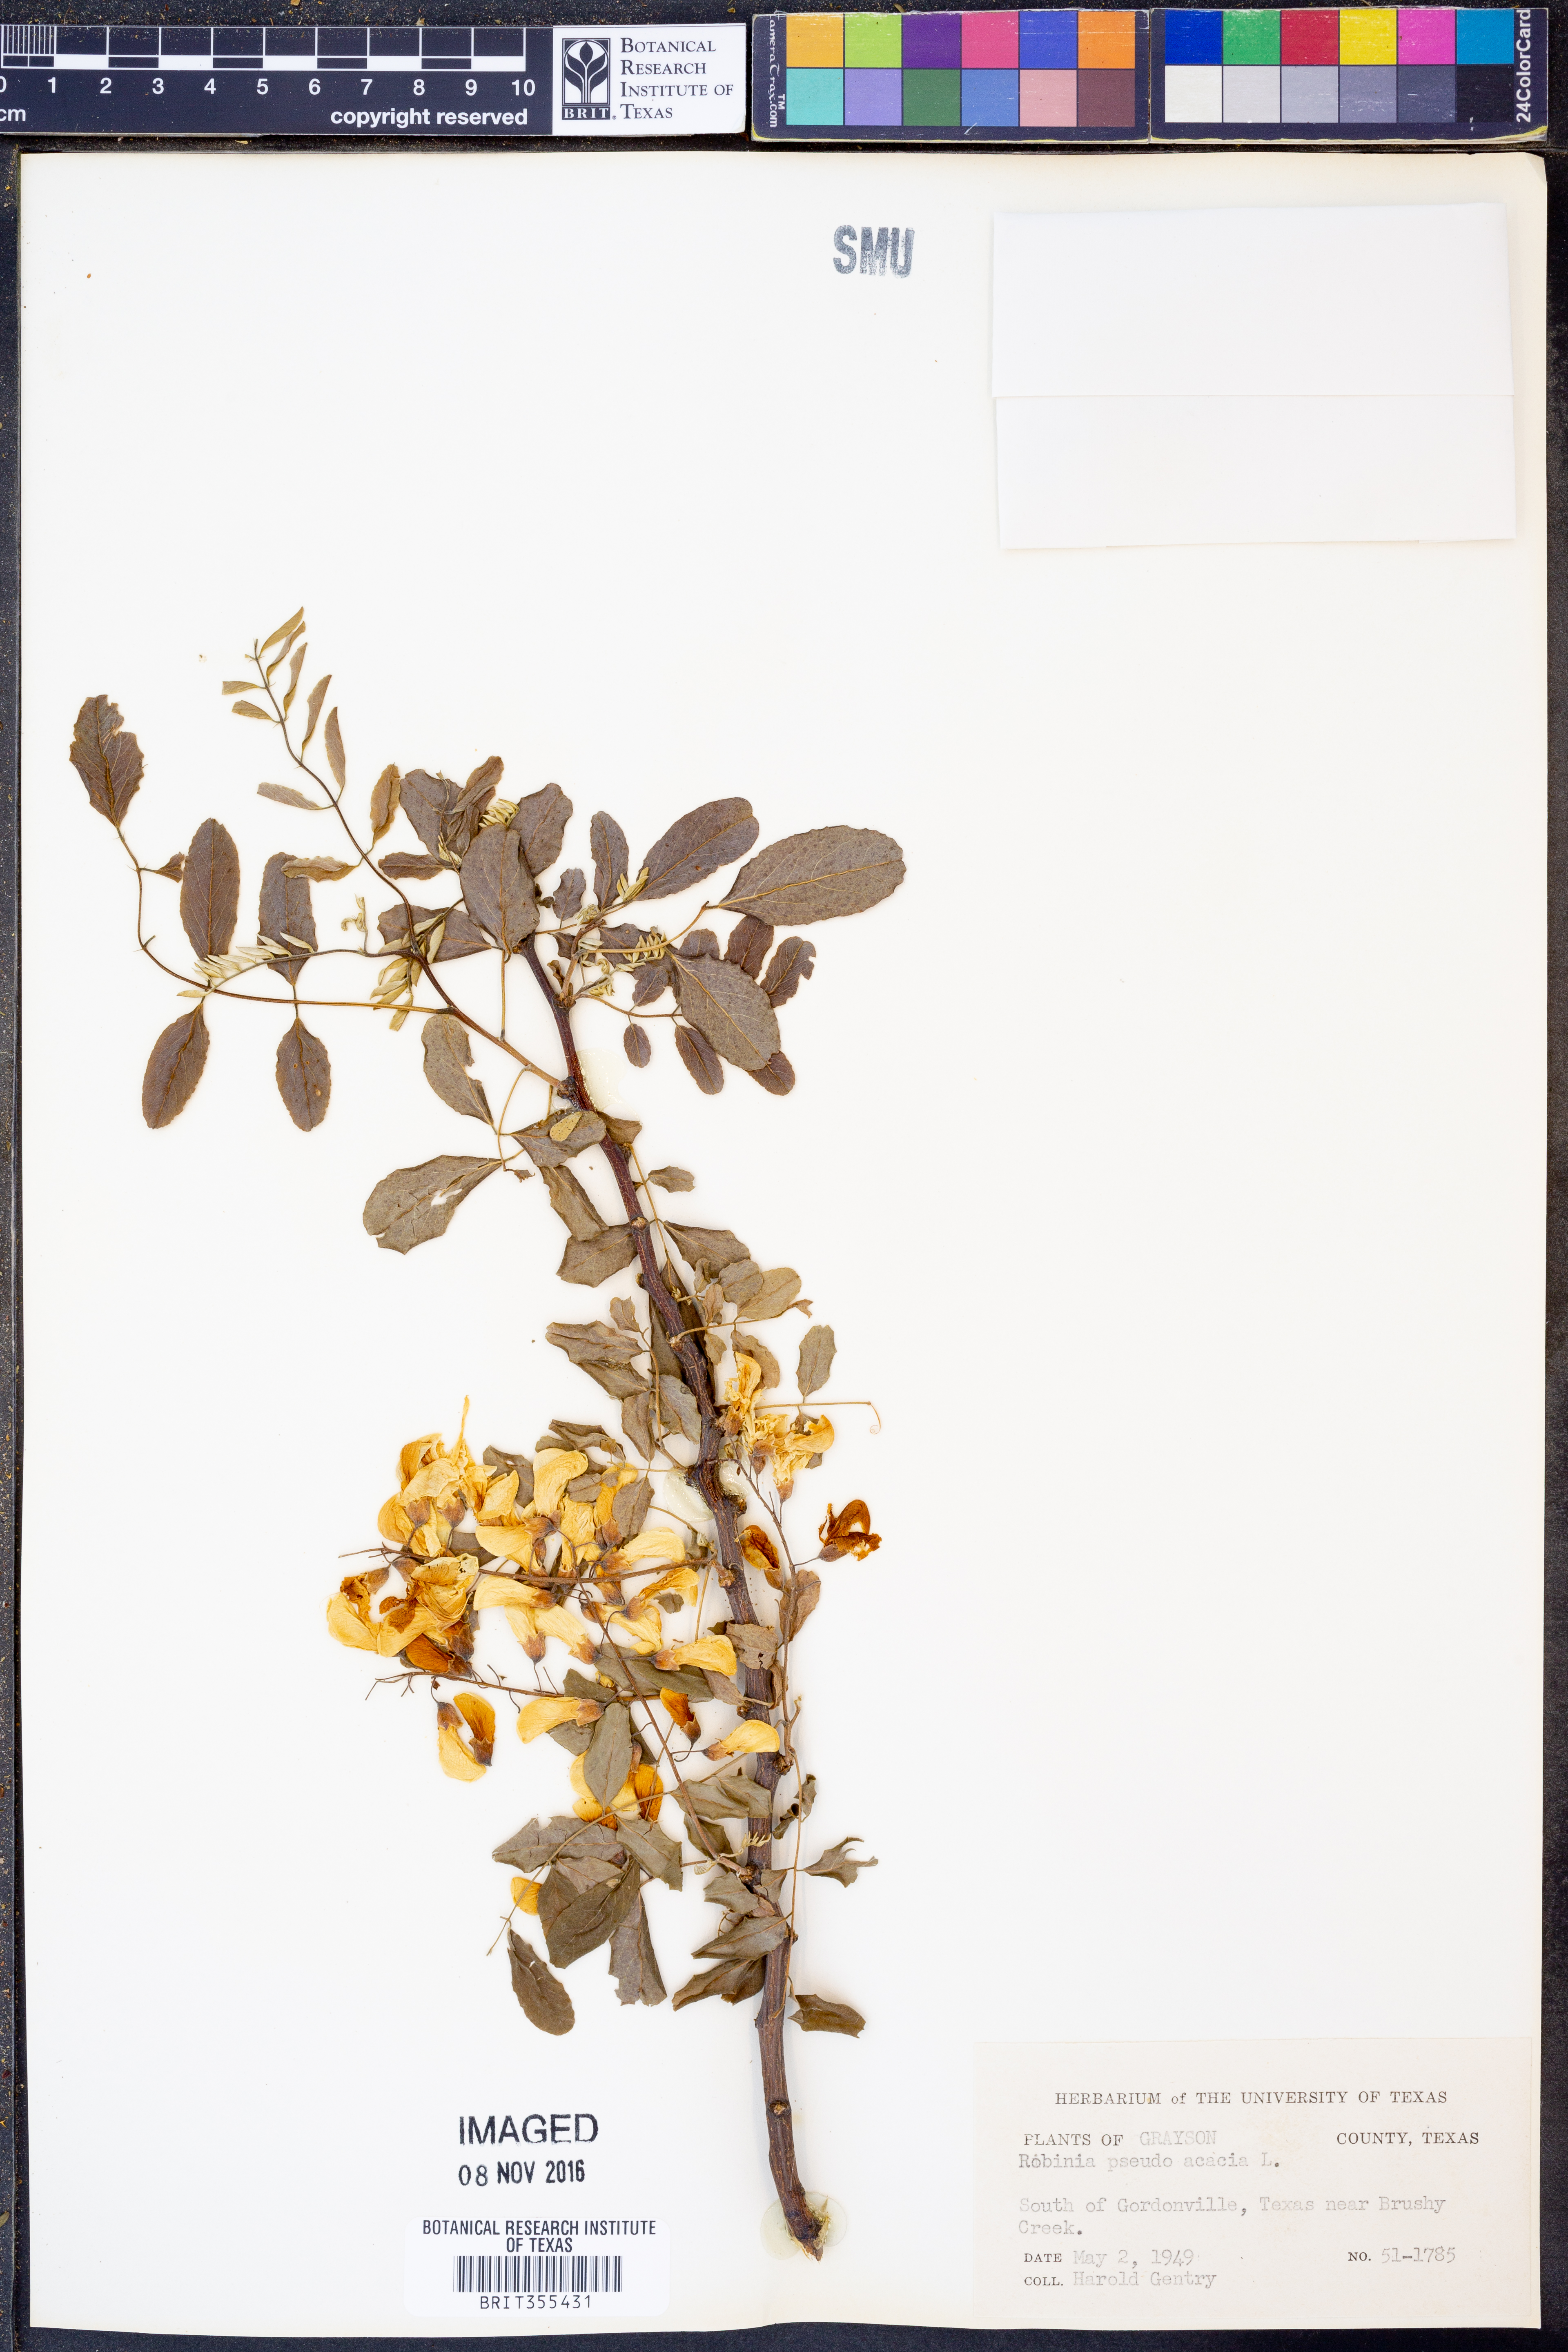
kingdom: Plantae
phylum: Tracheophyta
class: Magnoliopsida
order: Fabales
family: Fabaceae
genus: Robinia
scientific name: Robinia pseudoacacia
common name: Black locust
